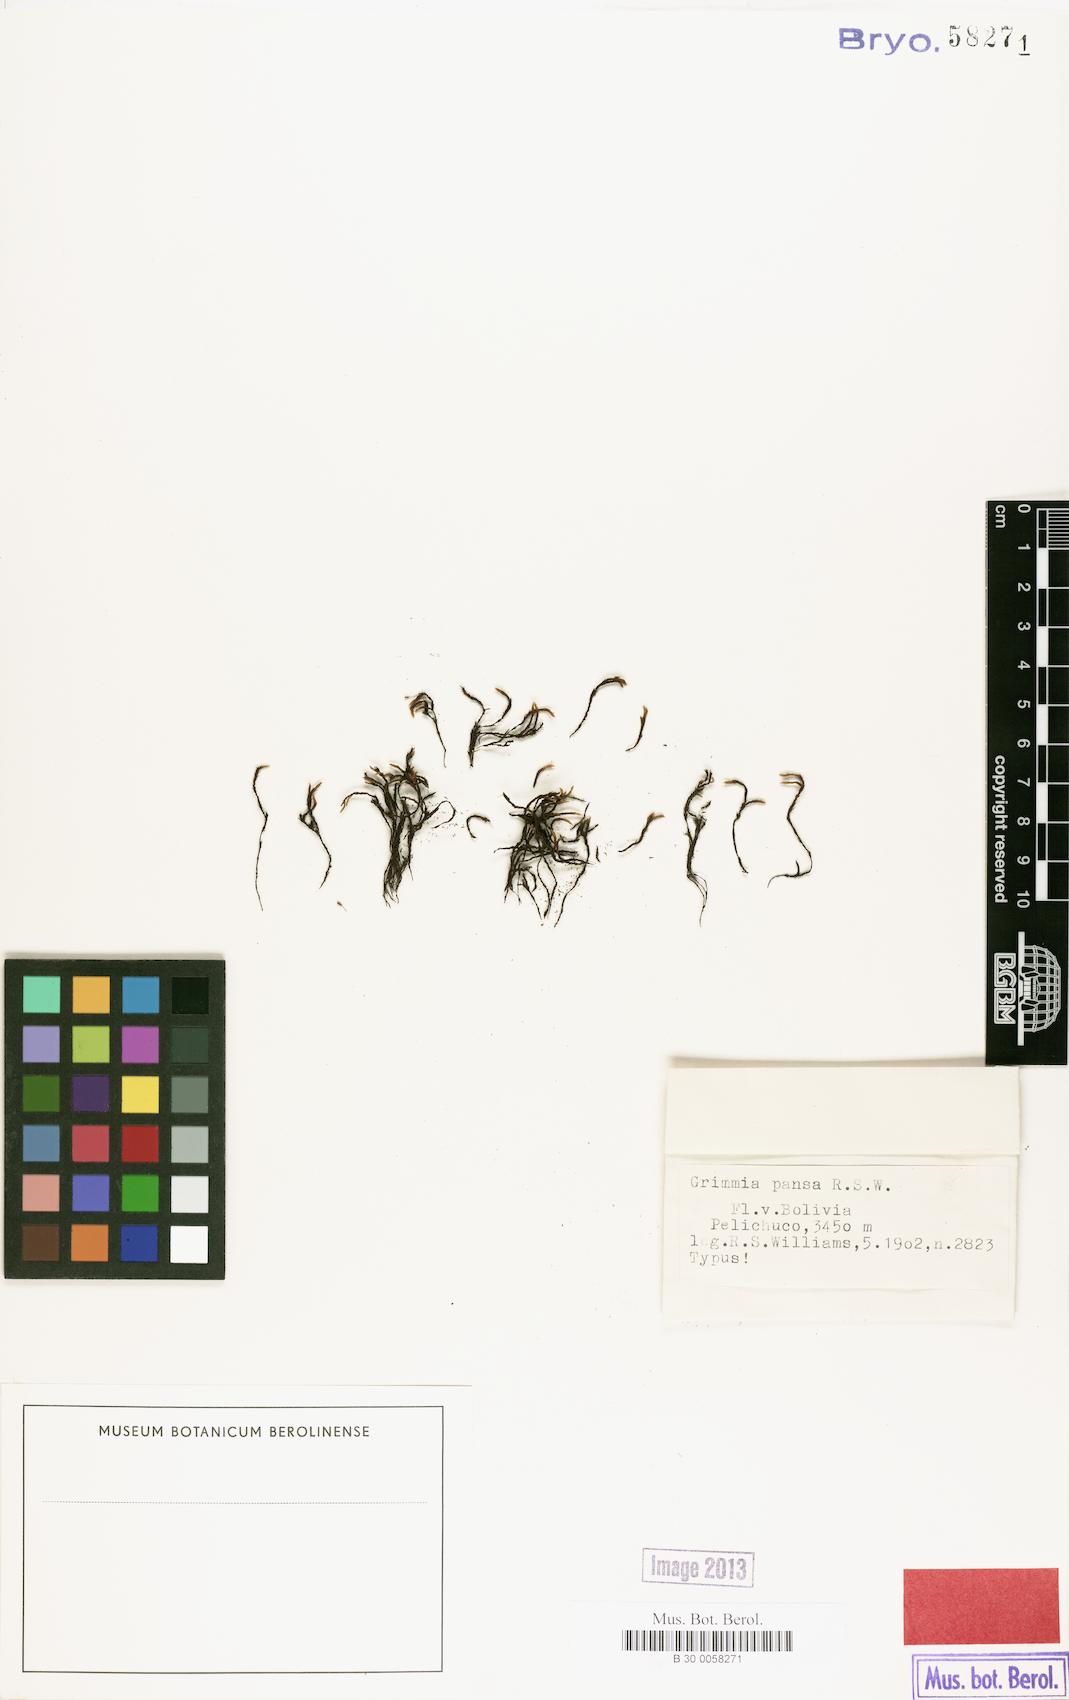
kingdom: Plantae
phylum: Bryophyta
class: Bryopsida
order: Grimmiales
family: Grimmiaceae
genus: Grimmia
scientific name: Grimmia austrofunalis
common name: Southern string grimmia
